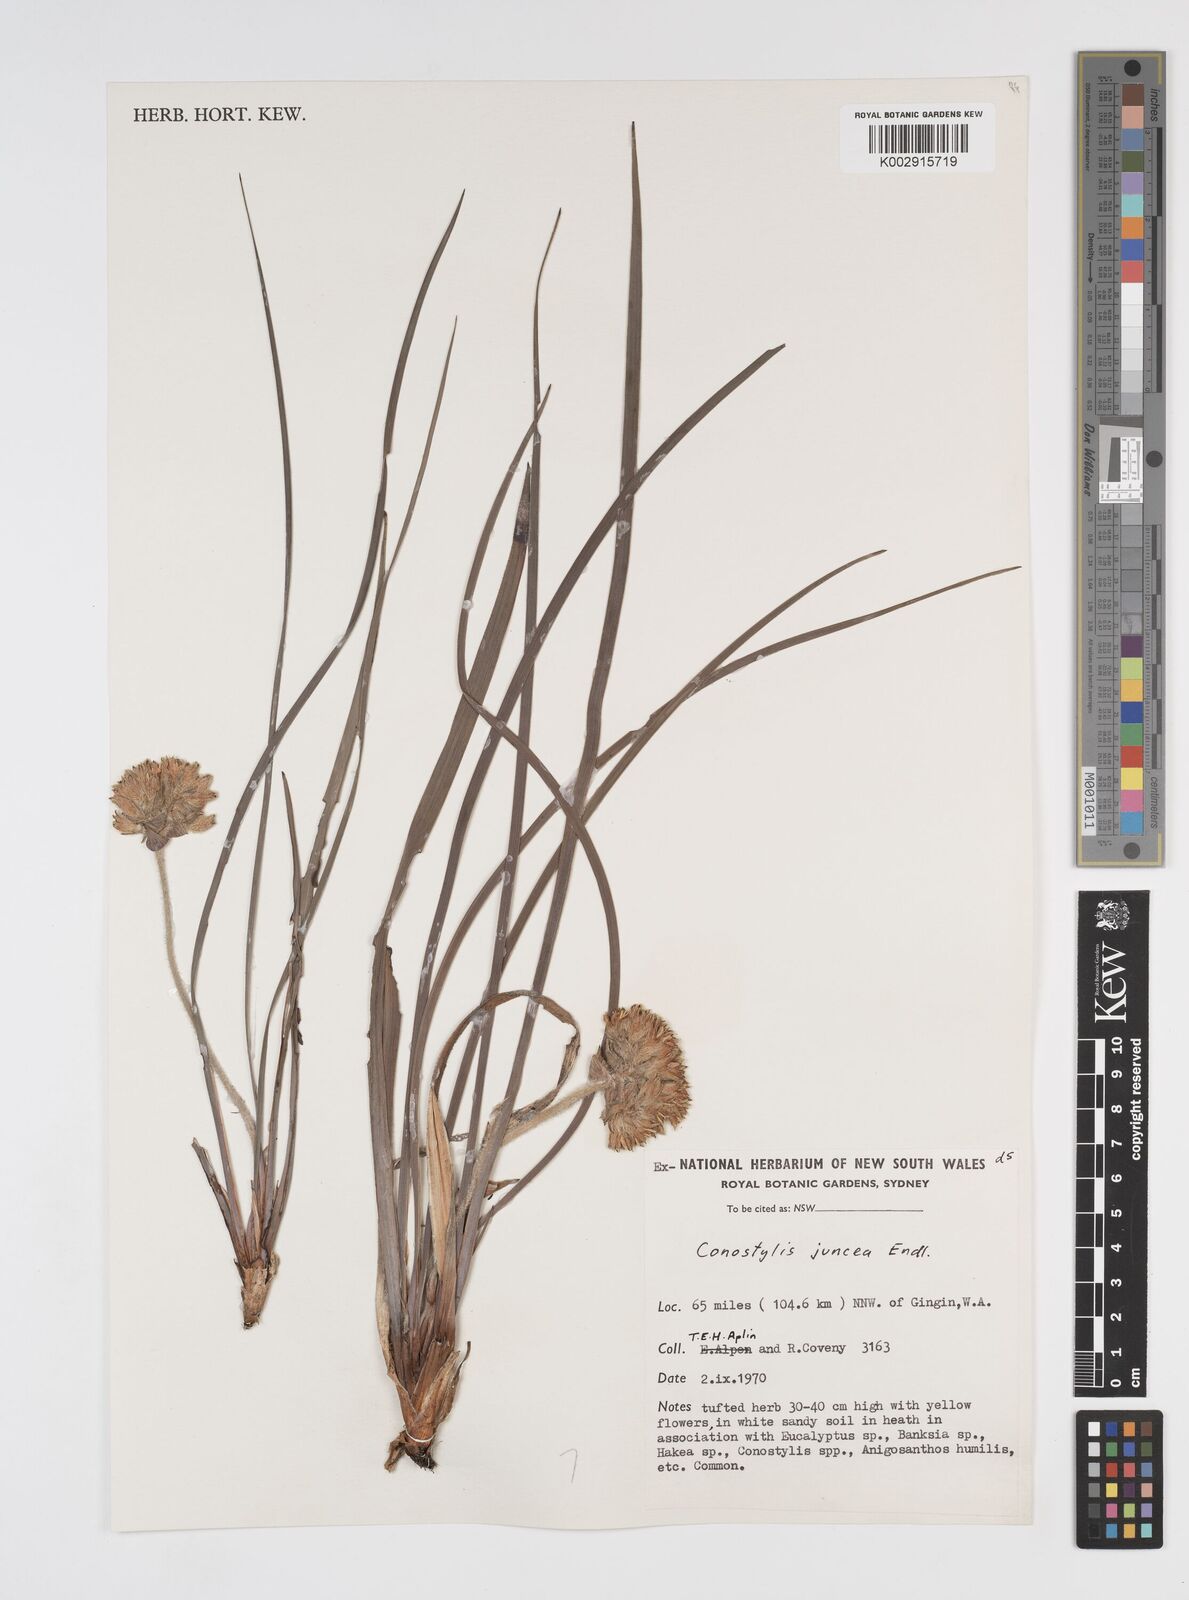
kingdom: Plantae
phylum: Tracheophyta
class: Liliopsida
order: Commelinales
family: Haemodoraceae
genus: Conostylis
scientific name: Conostylis juncea
